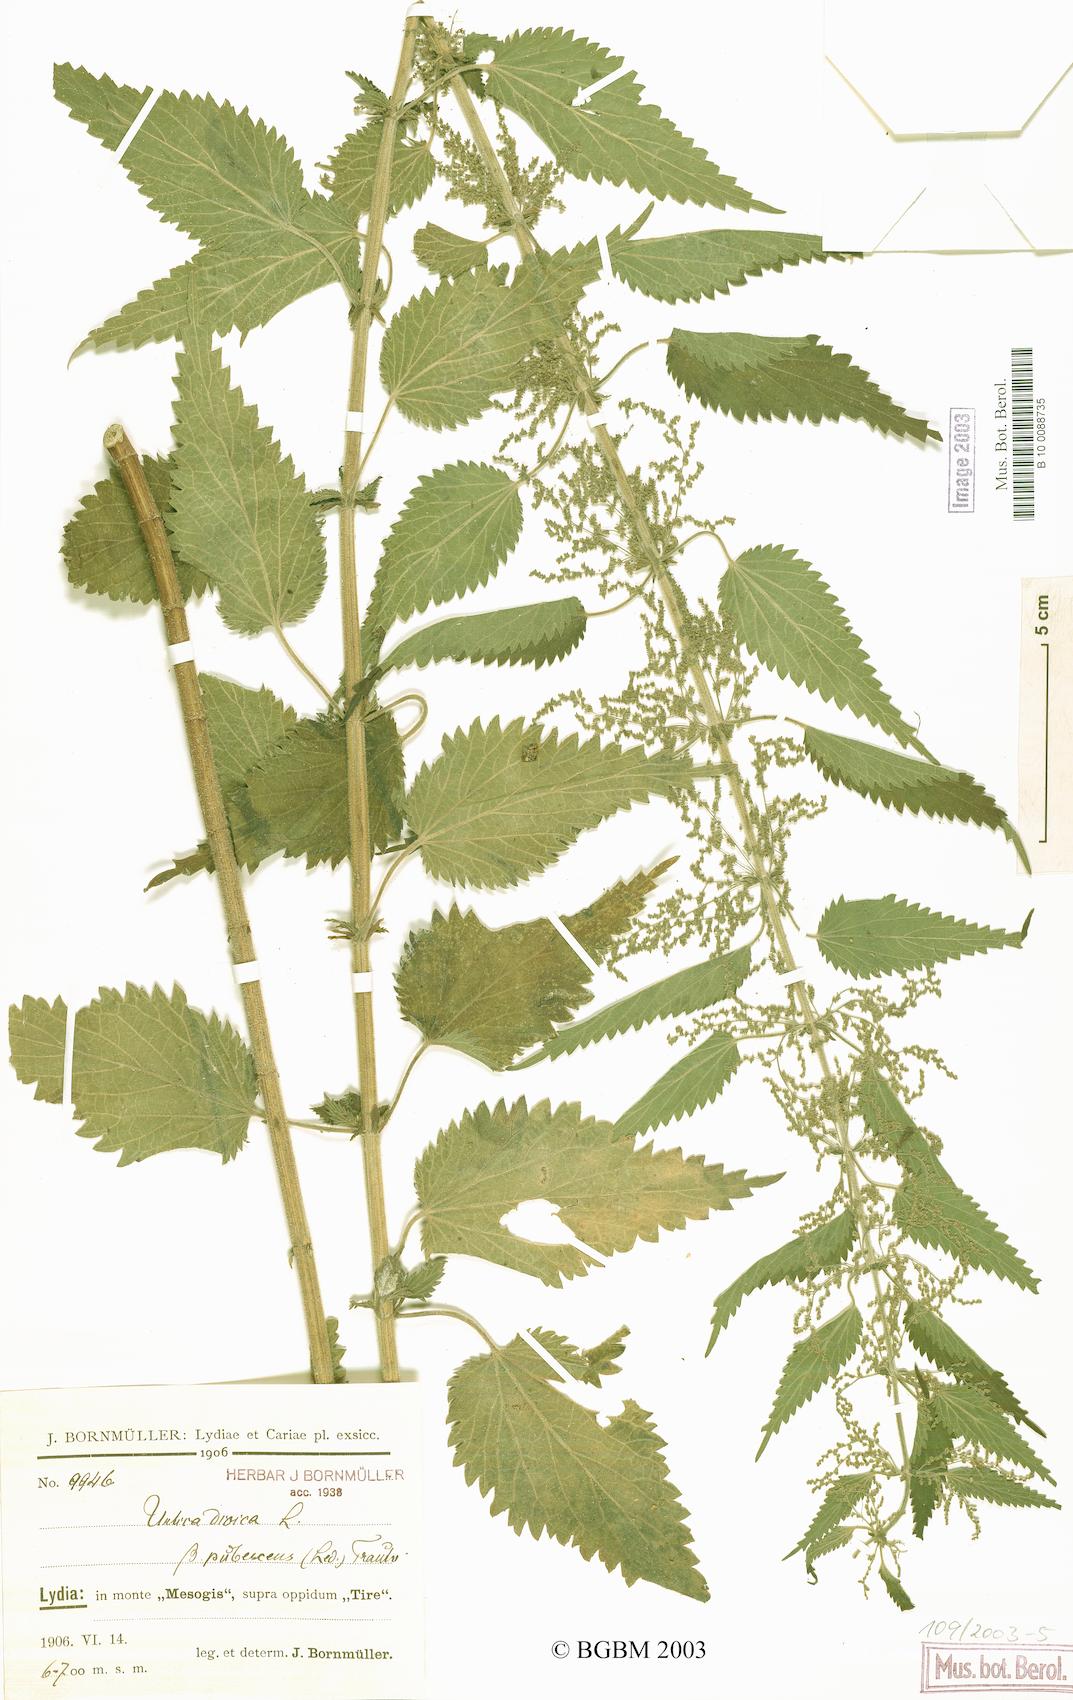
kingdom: Plantae
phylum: Tracheophyta
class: Magnoliopsida
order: Rosales
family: Urticaceae
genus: Urtica
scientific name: Urtica dioica
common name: Common nettle
